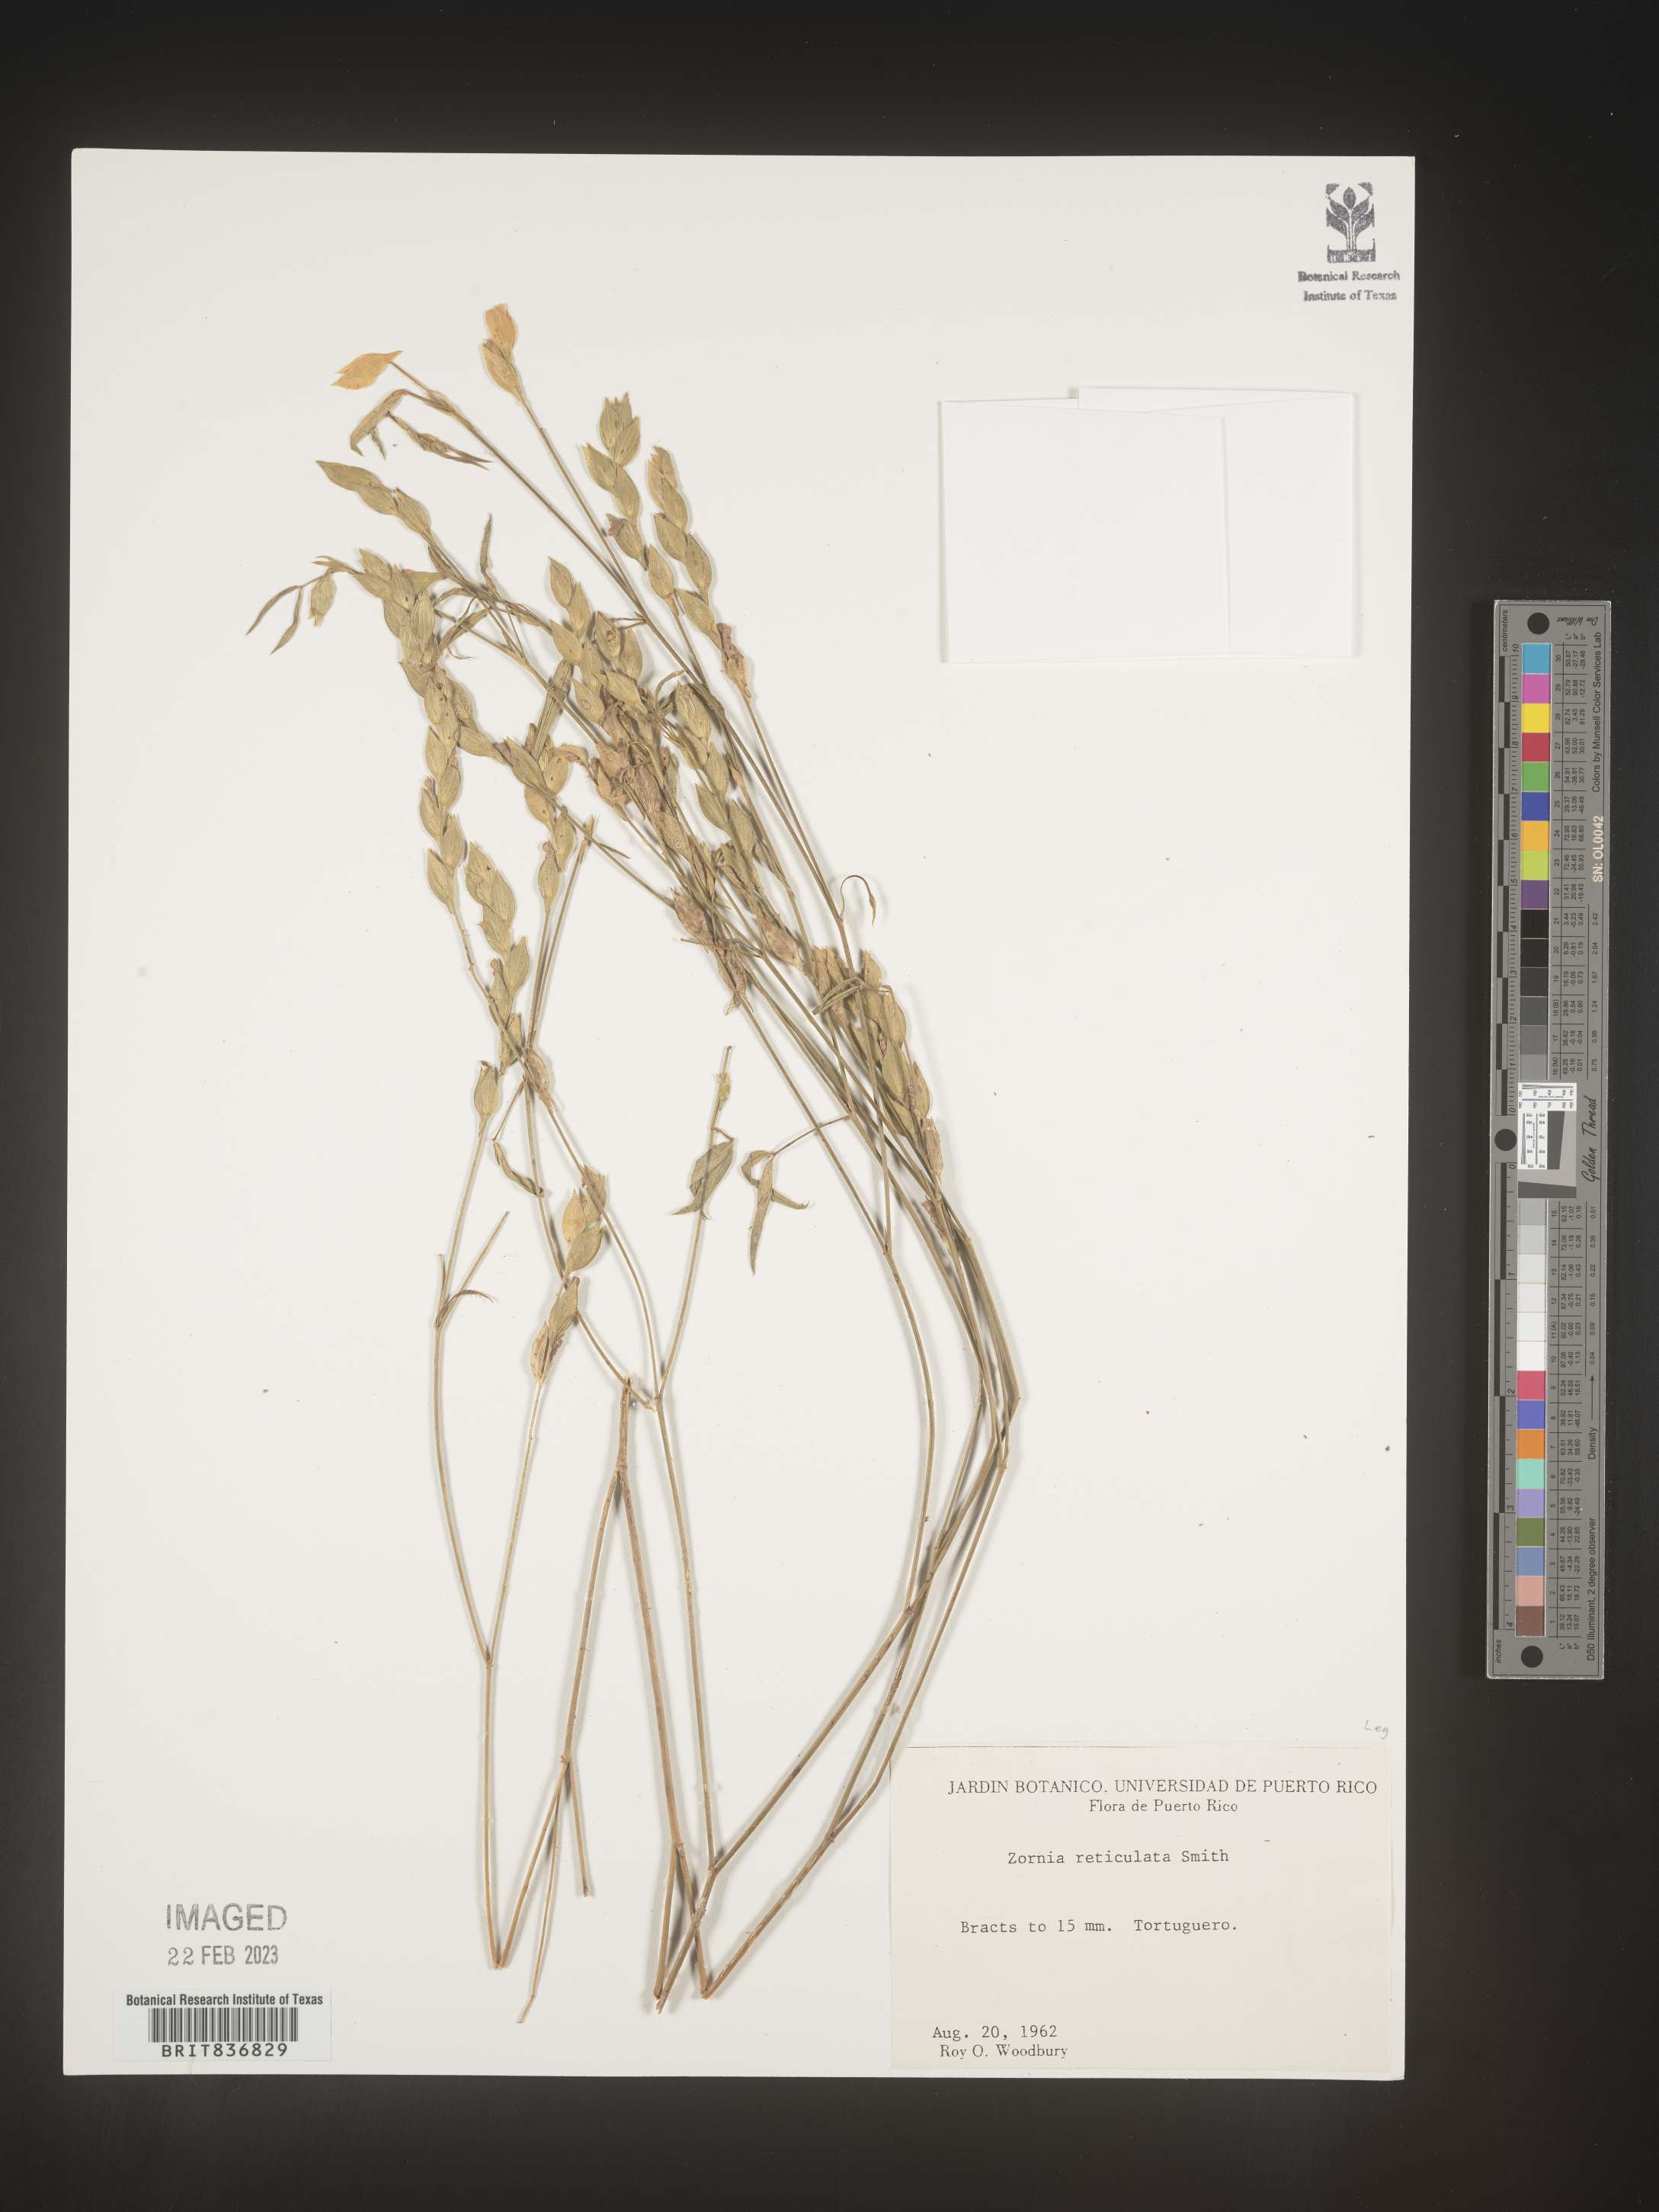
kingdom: Plantae
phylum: Tracheophyta
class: Magnoliopsida
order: Fabales
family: Fabaceae
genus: Zornia
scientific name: Zornia
